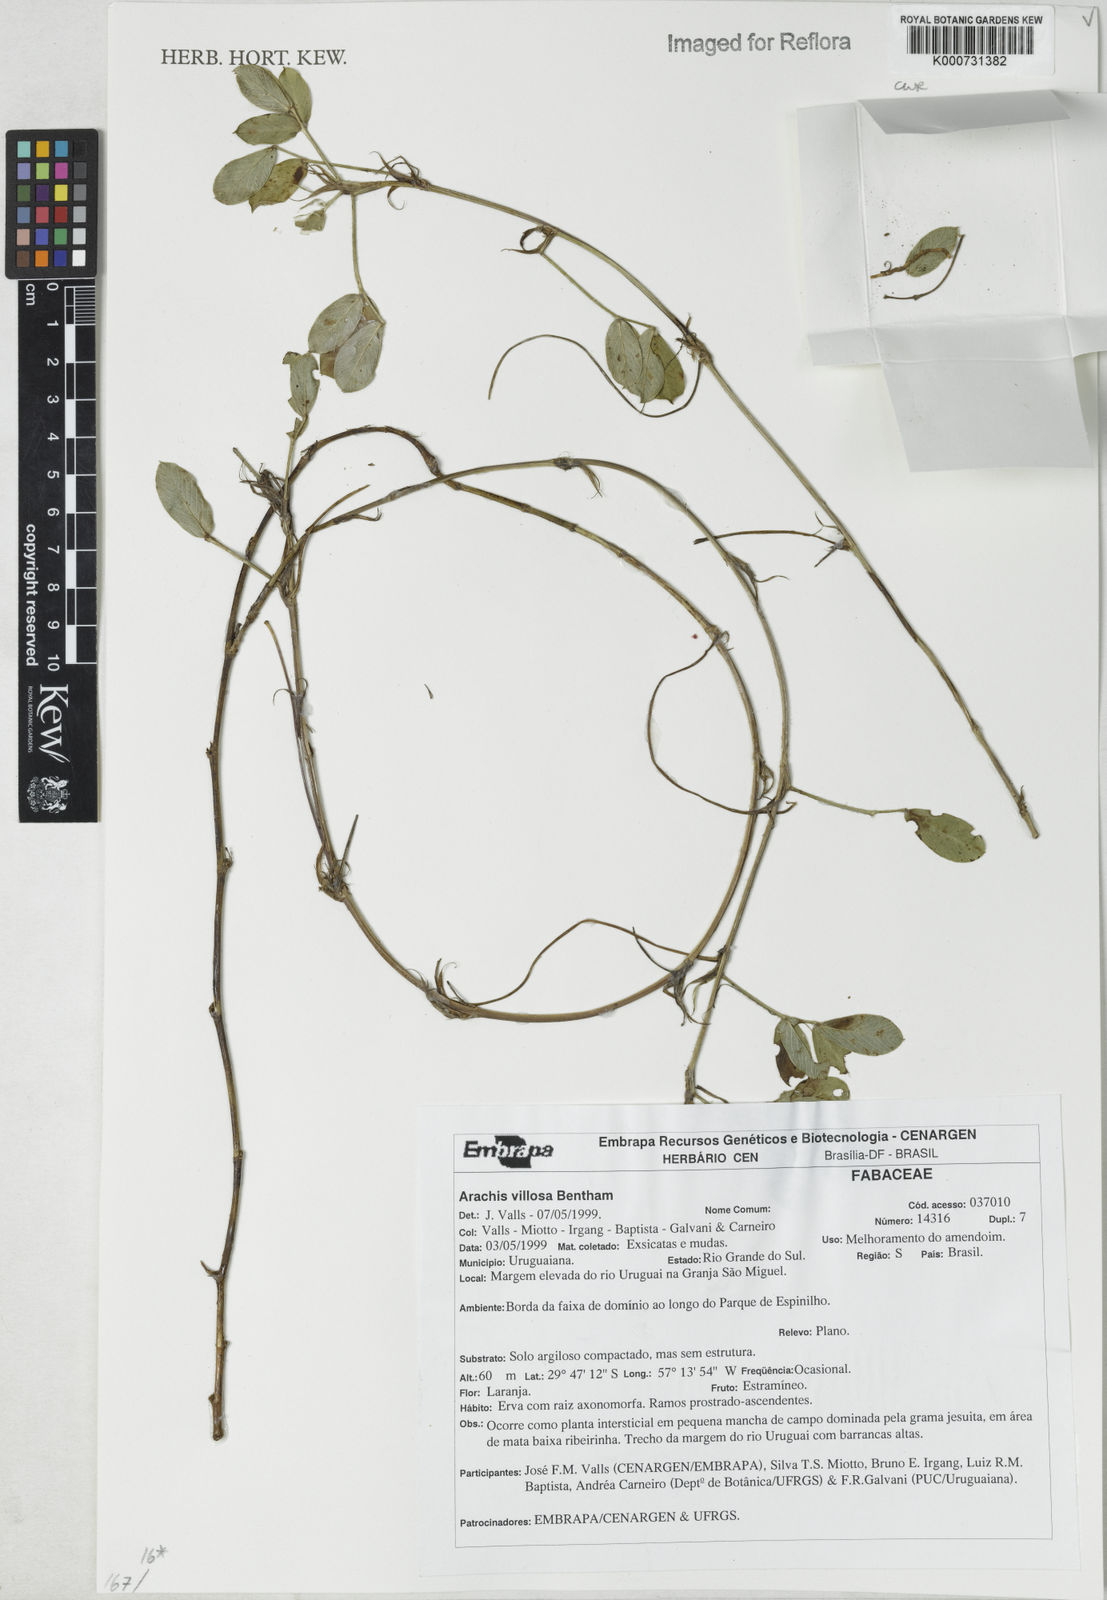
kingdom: Plantae
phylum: Tracheophyta
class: Magnoliopsida
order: Fabales
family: Fabaceae
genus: Arachis
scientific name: Arachis villosa
